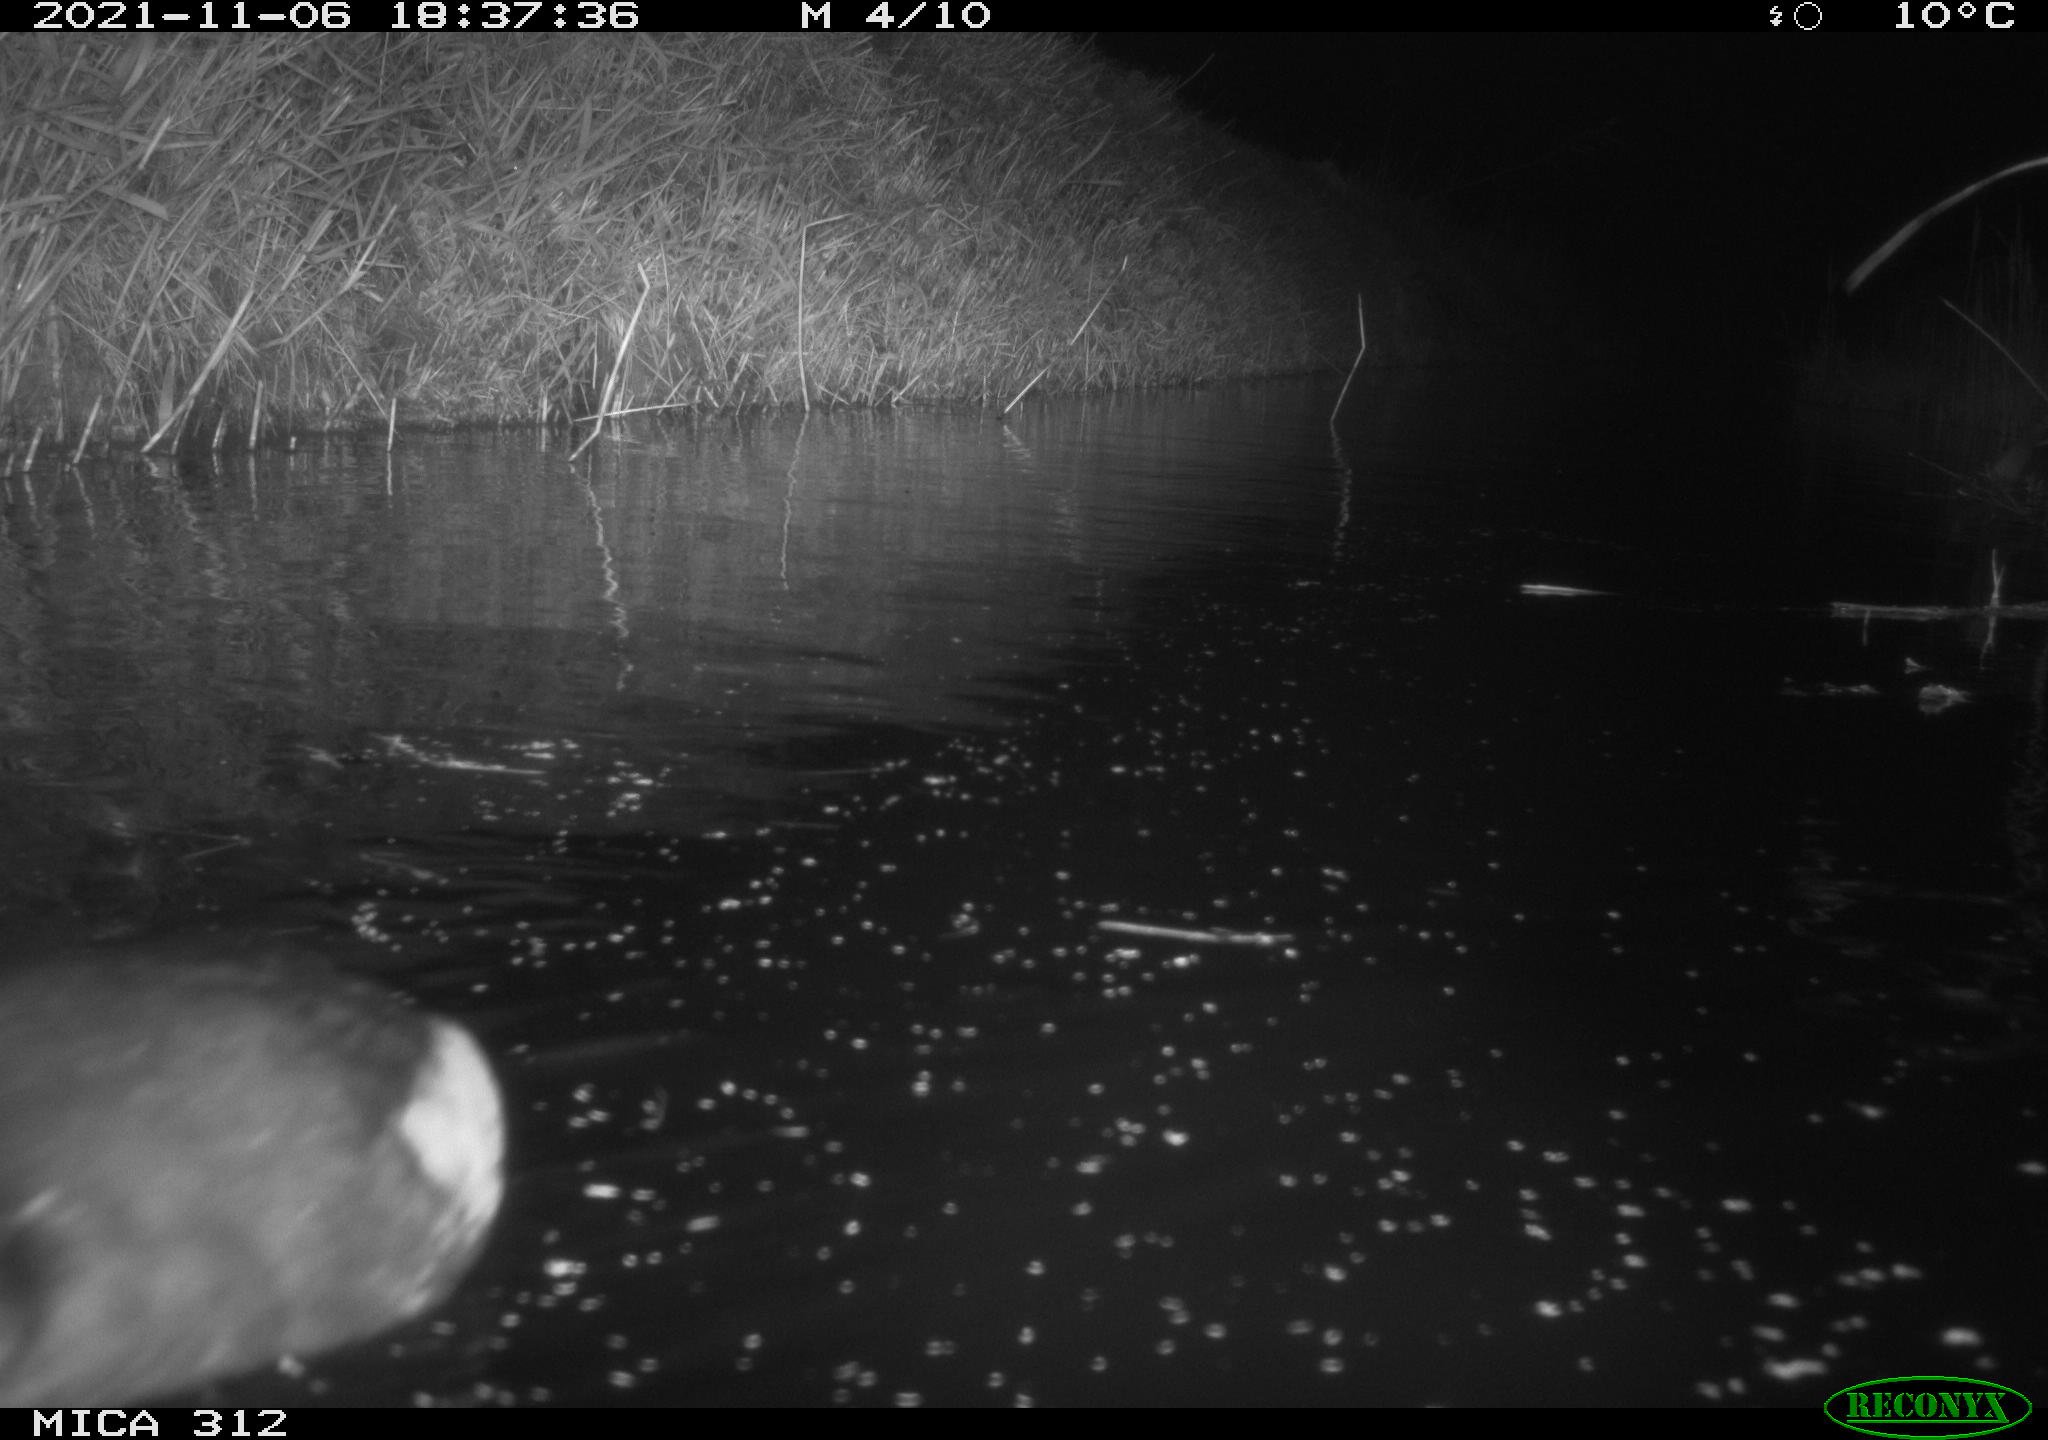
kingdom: Animalia
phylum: Chordata
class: Aves
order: Gruiformes
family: Rallidae
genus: Fulica
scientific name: Fulica atra
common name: Eurasian coot
